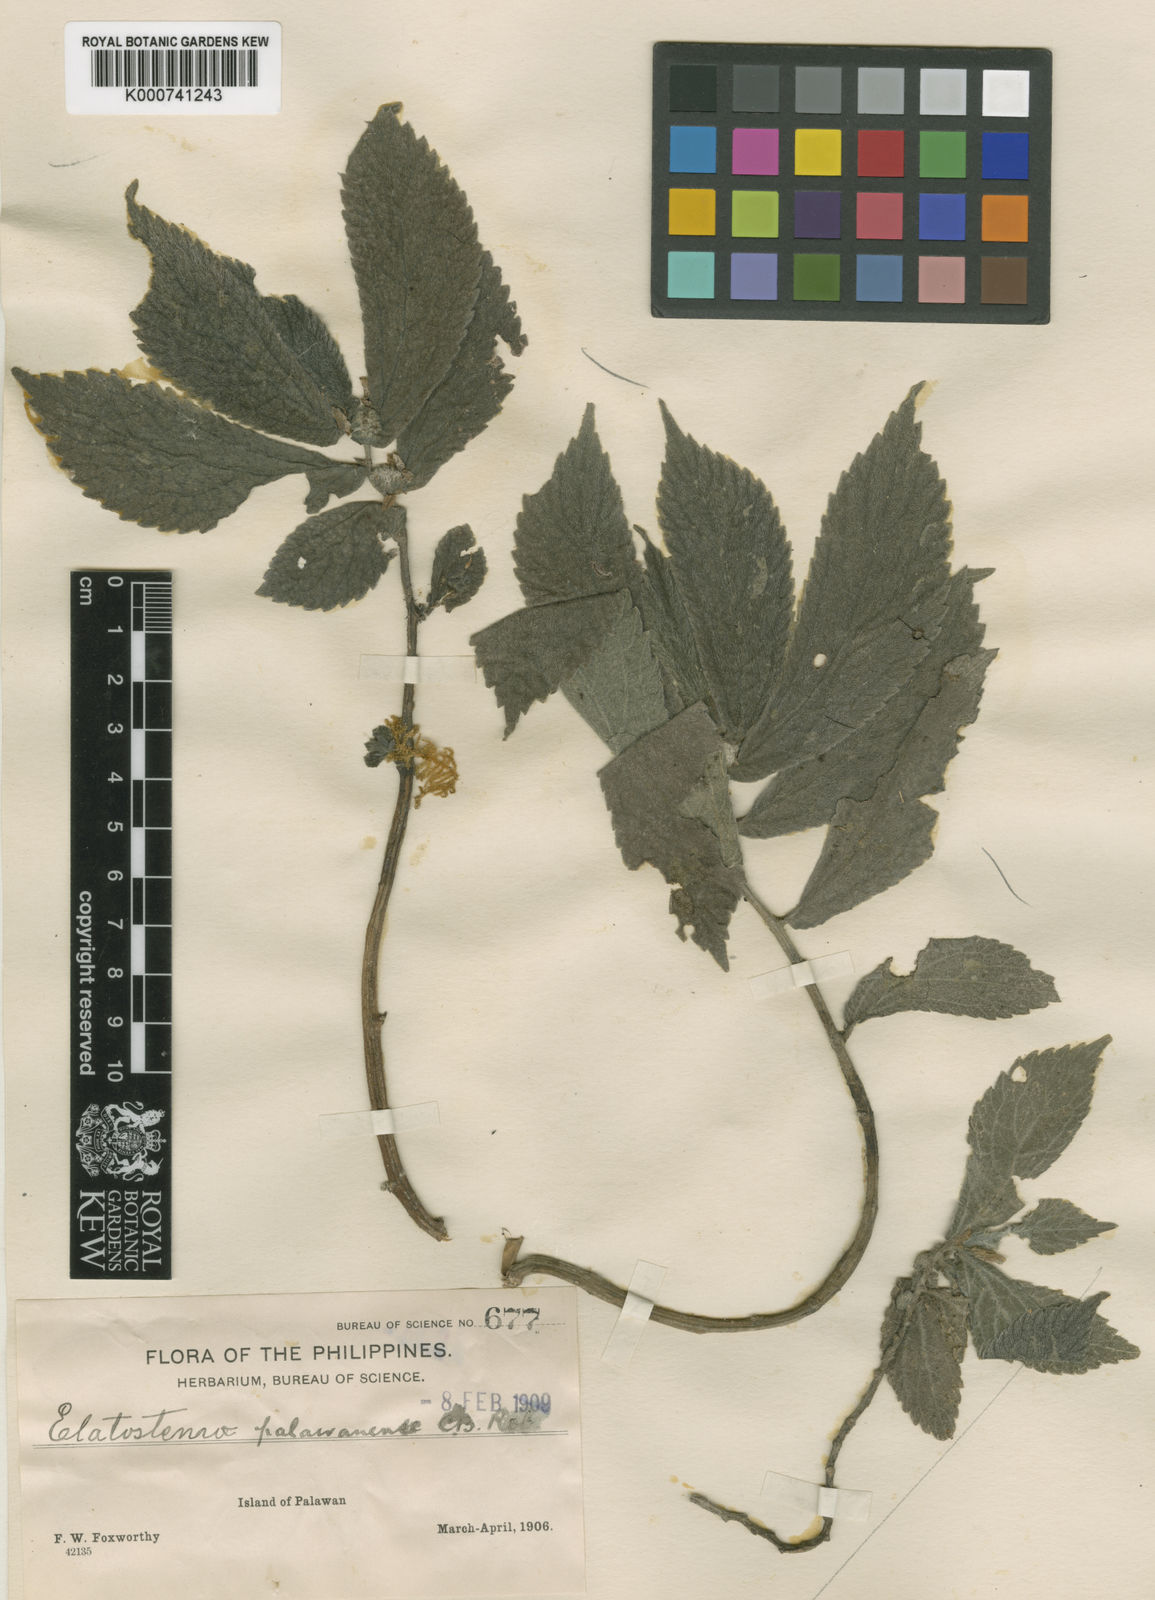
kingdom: Plantae
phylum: Tracheophyta
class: Magnoliopsida
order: Rosales
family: Urticaceae
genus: Elatostema
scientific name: Elatostema
